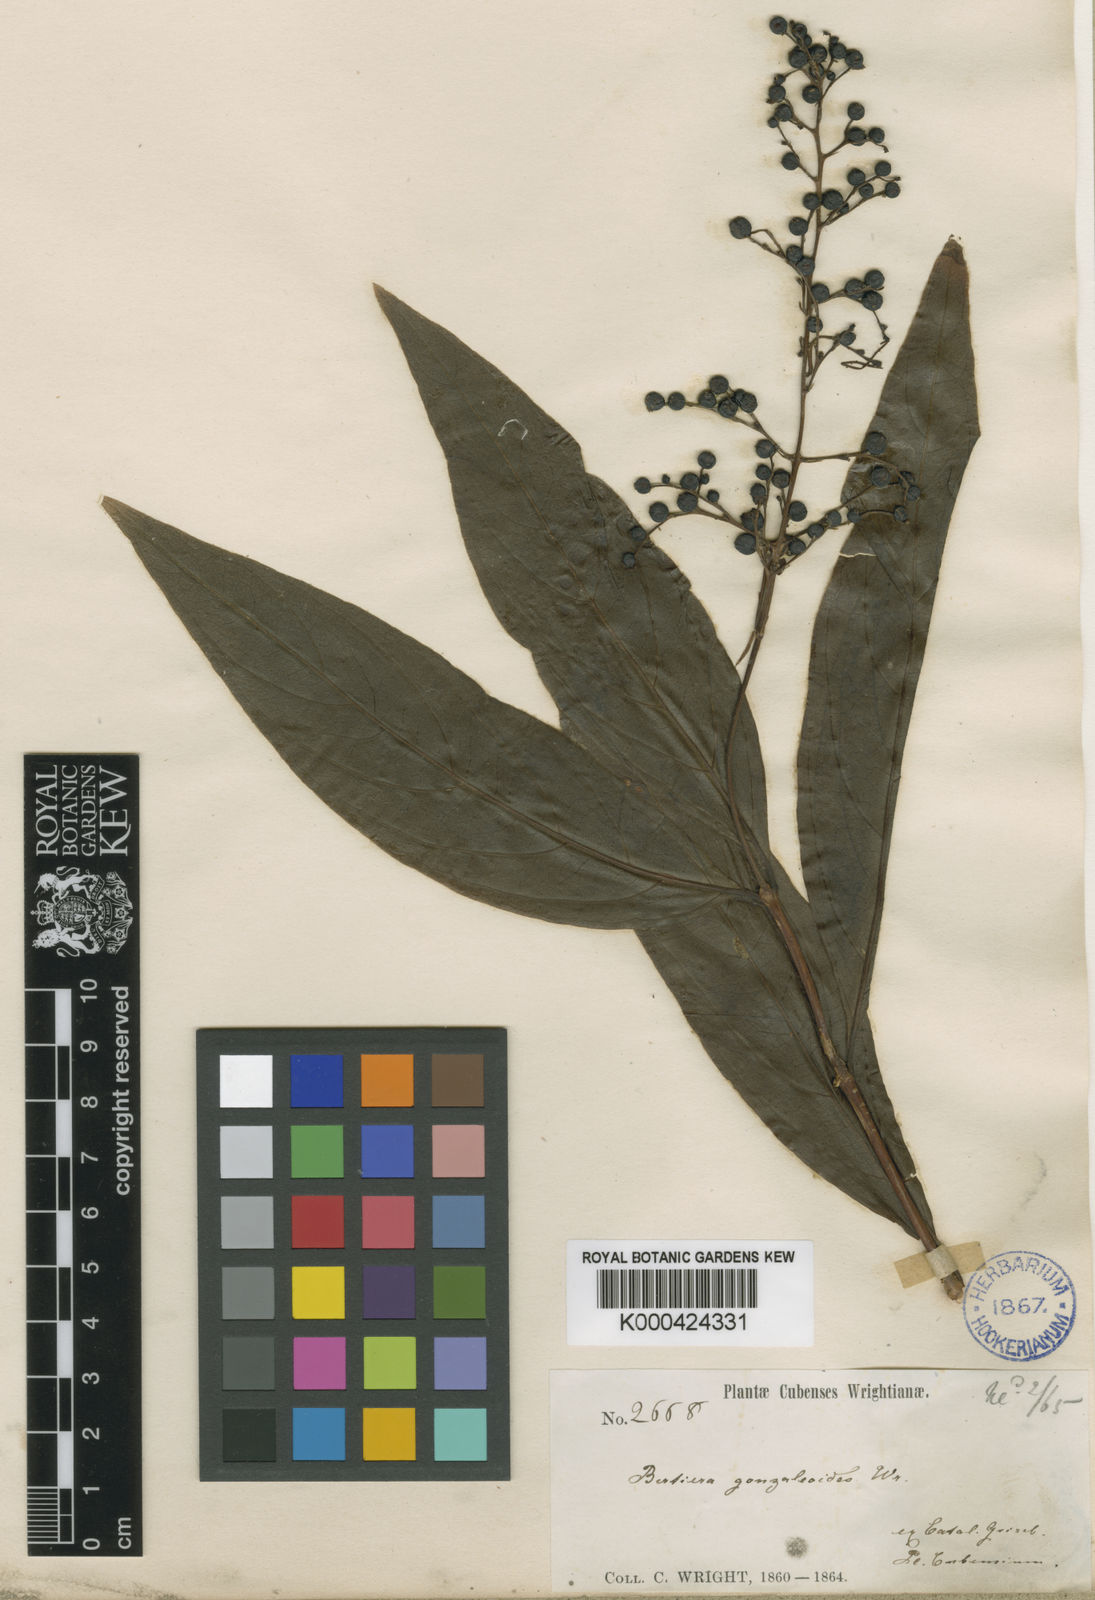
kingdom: Plantae
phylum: Tracheophyta
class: Magnoliopsida
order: Gentianales
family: Rubiaceae
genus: Bertiera
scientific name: Bertiera gonzaleoides
